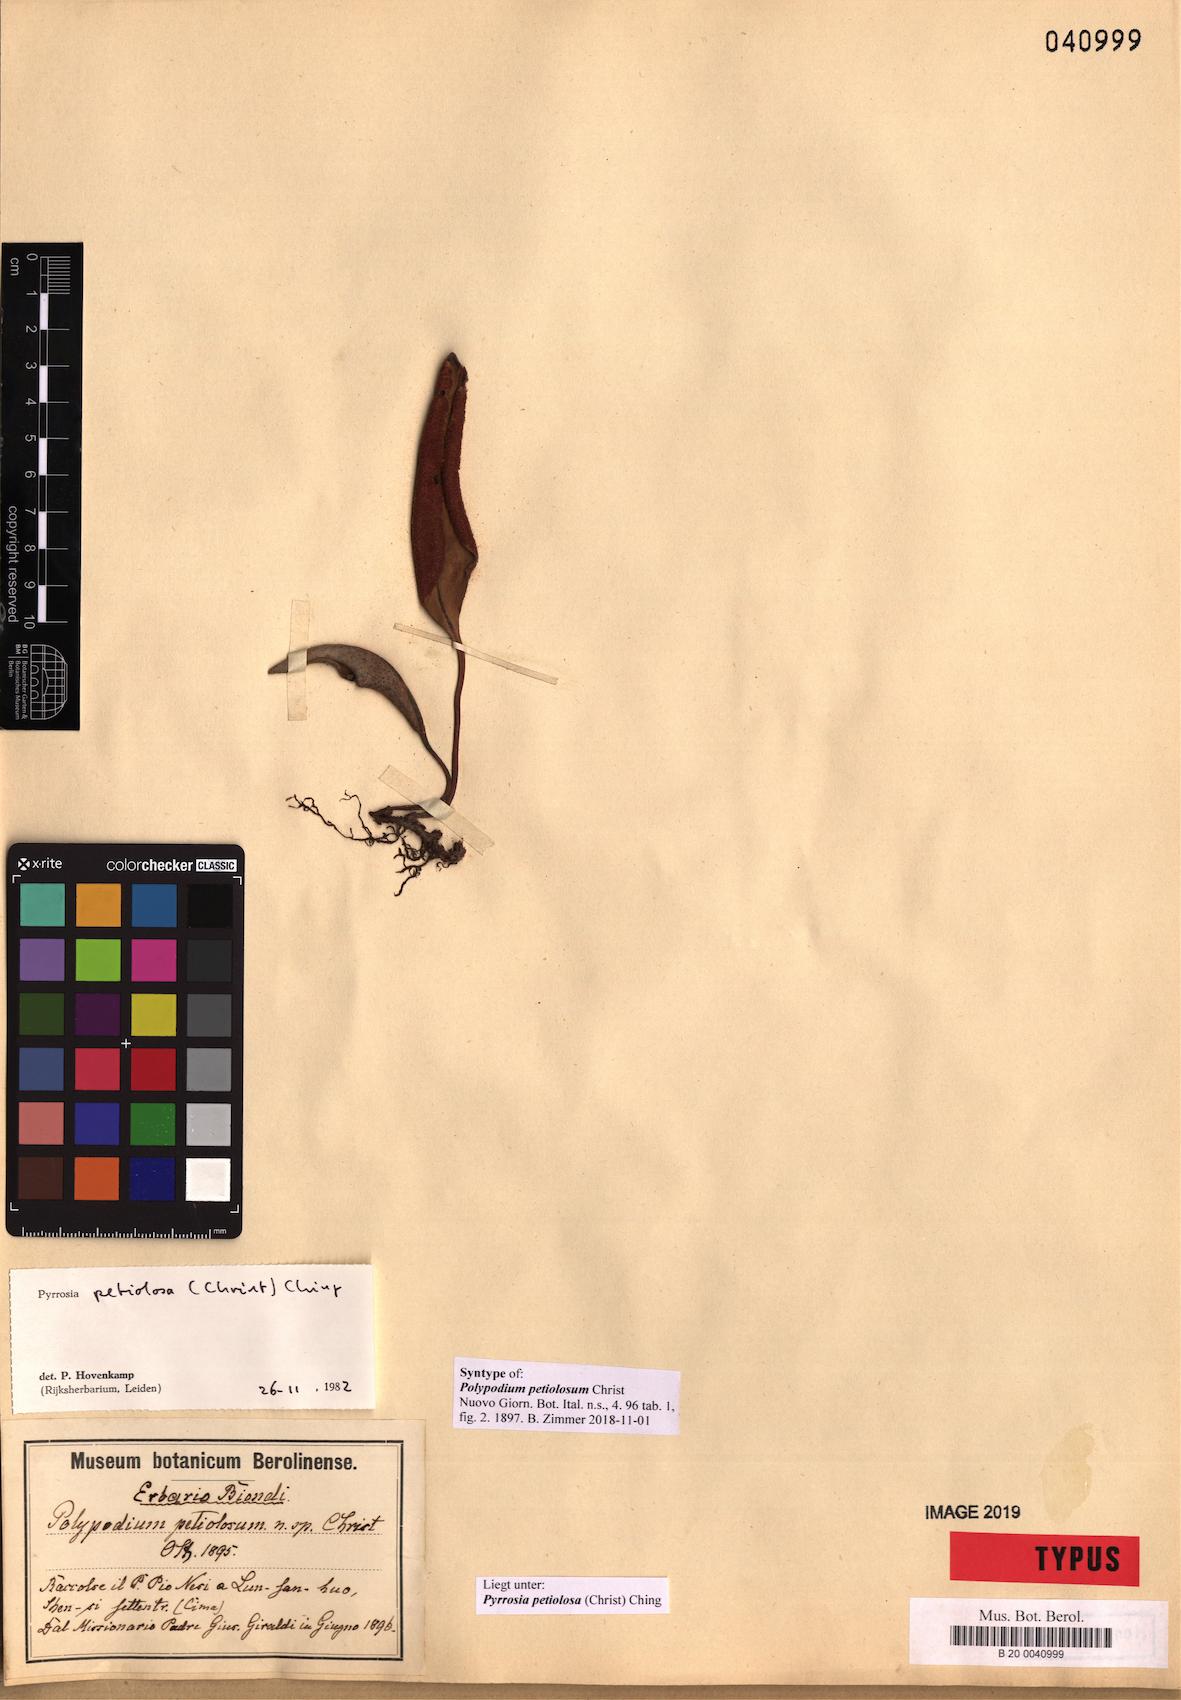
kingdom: Plantae
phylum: Tracheophyta
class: Polypodiopsida
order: Polypodiales
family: Polypodiaceae
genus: Pyrrosia
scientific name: Pyrrosia petiolosa
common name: Pyrrosia
